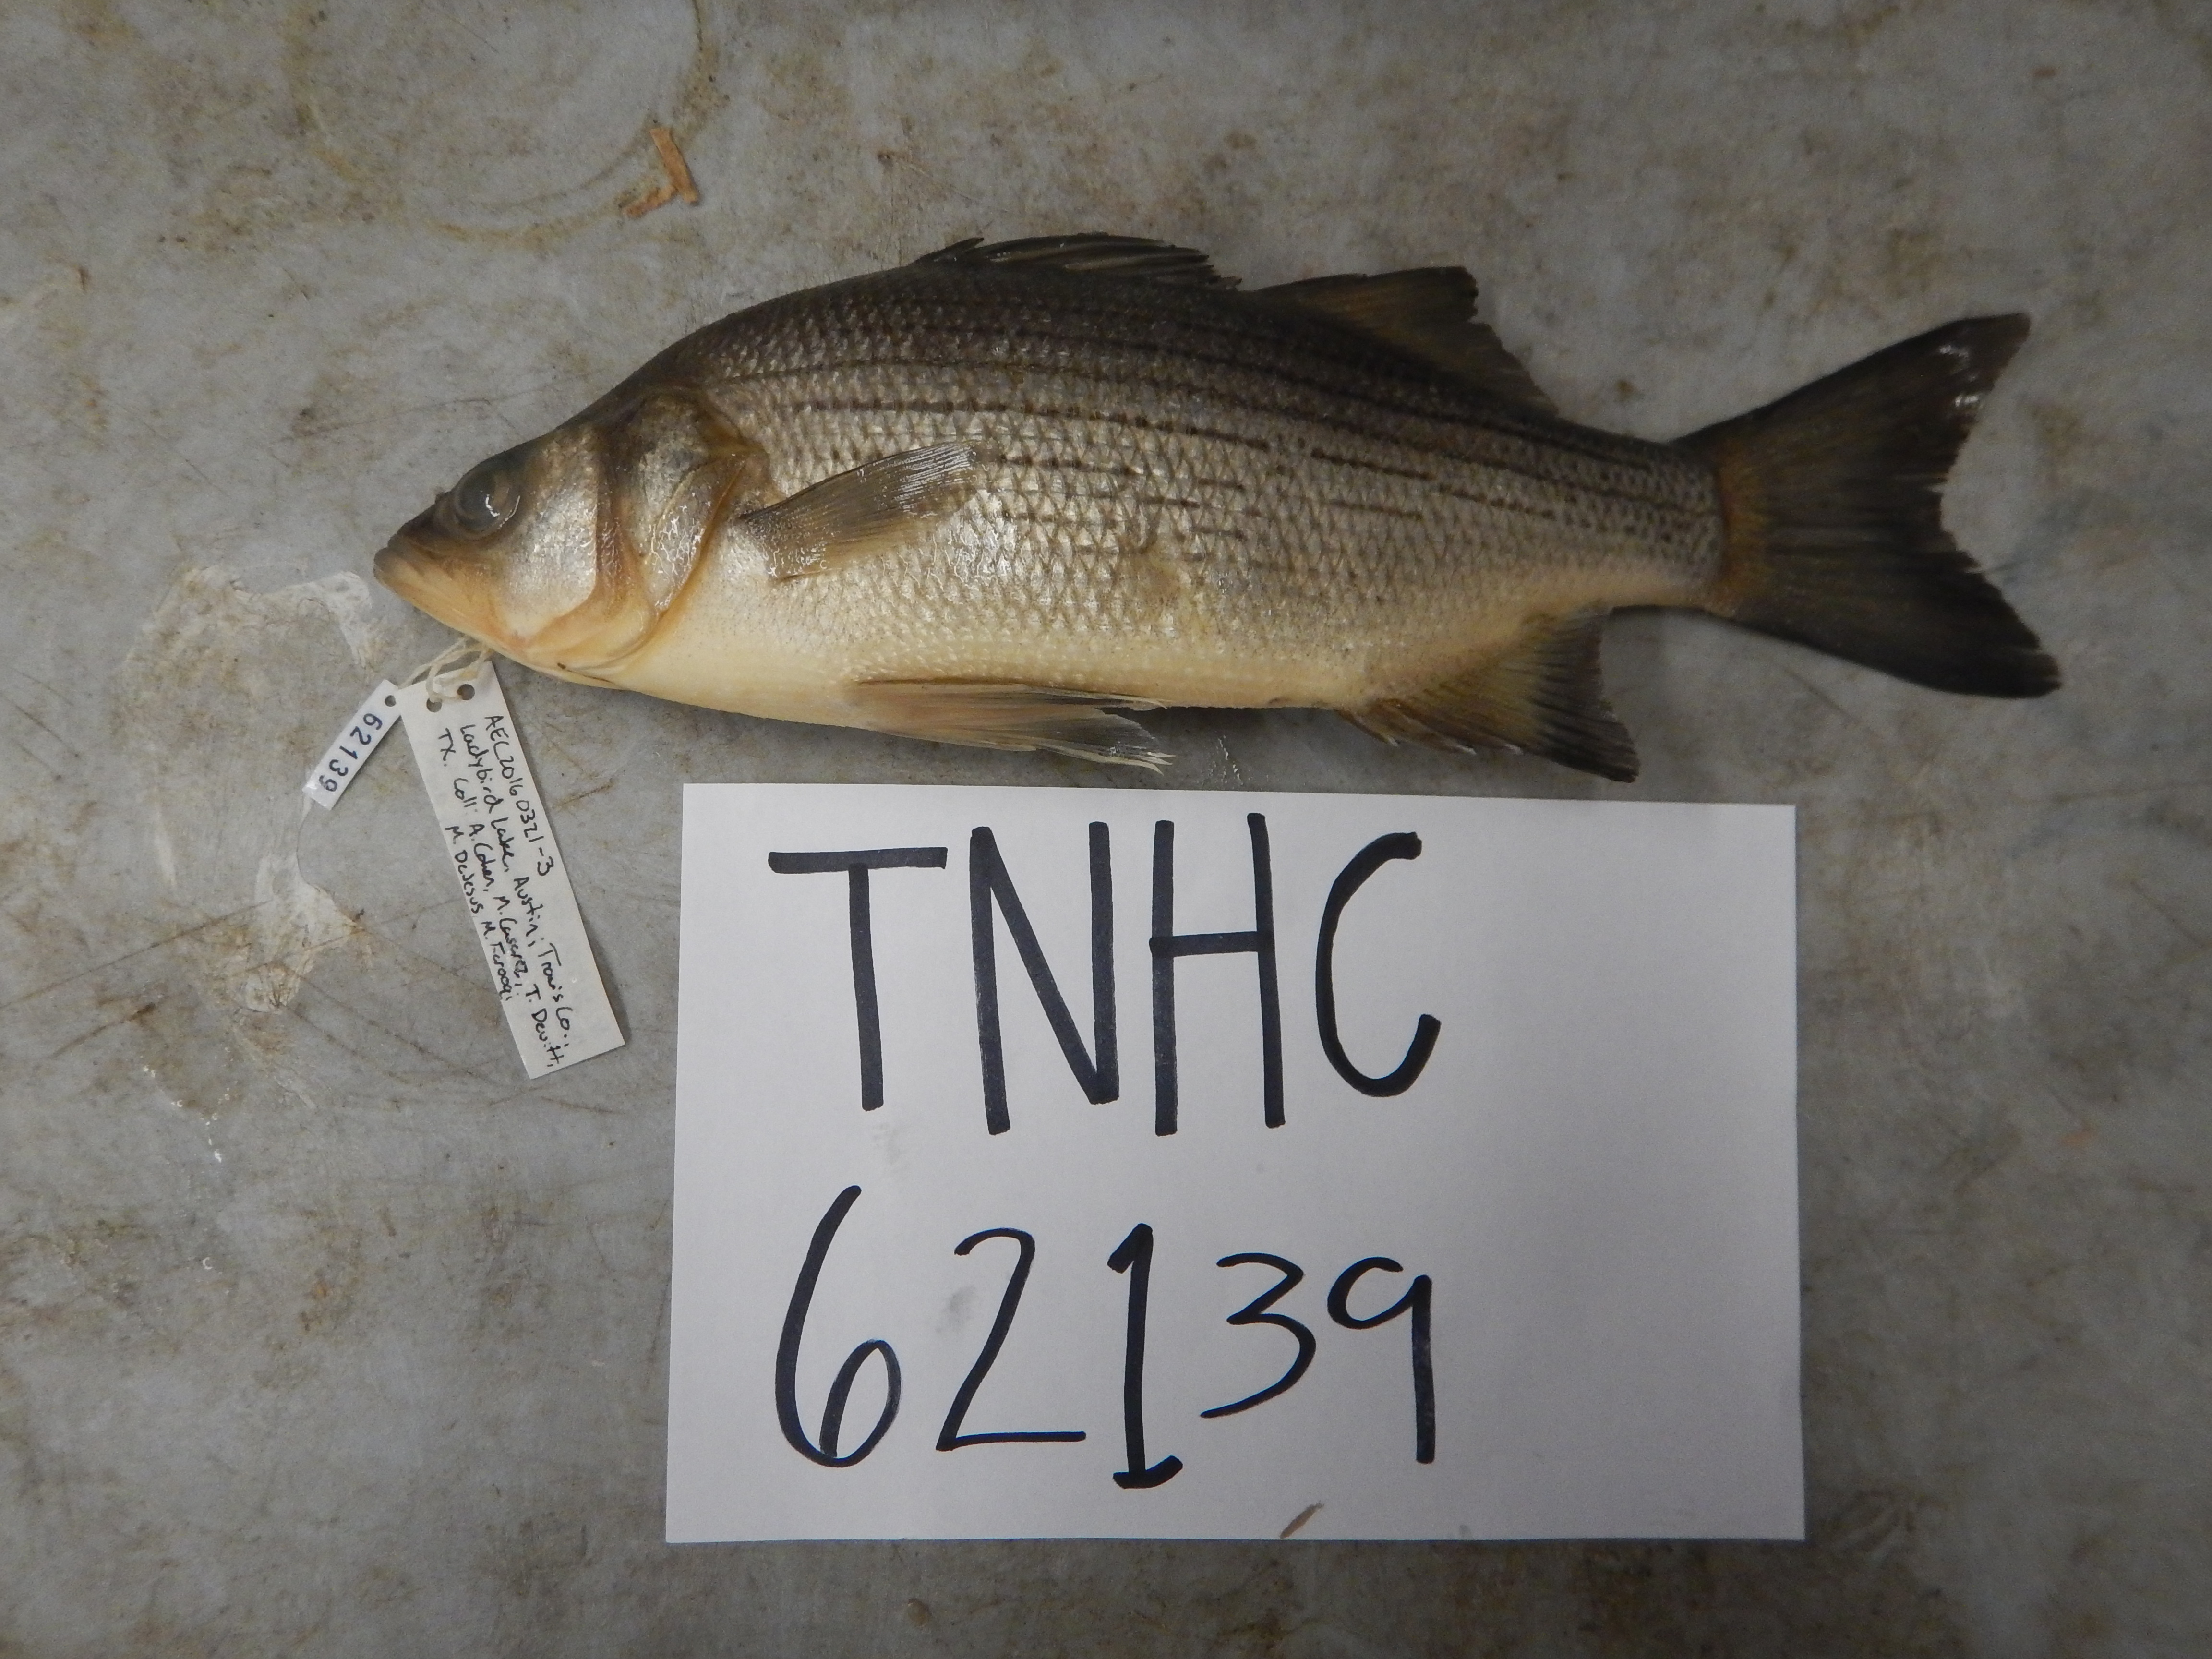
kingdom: Animalia
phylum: Chordata
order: Perciformes
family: Moronidae
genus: Morone
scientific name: Morone
